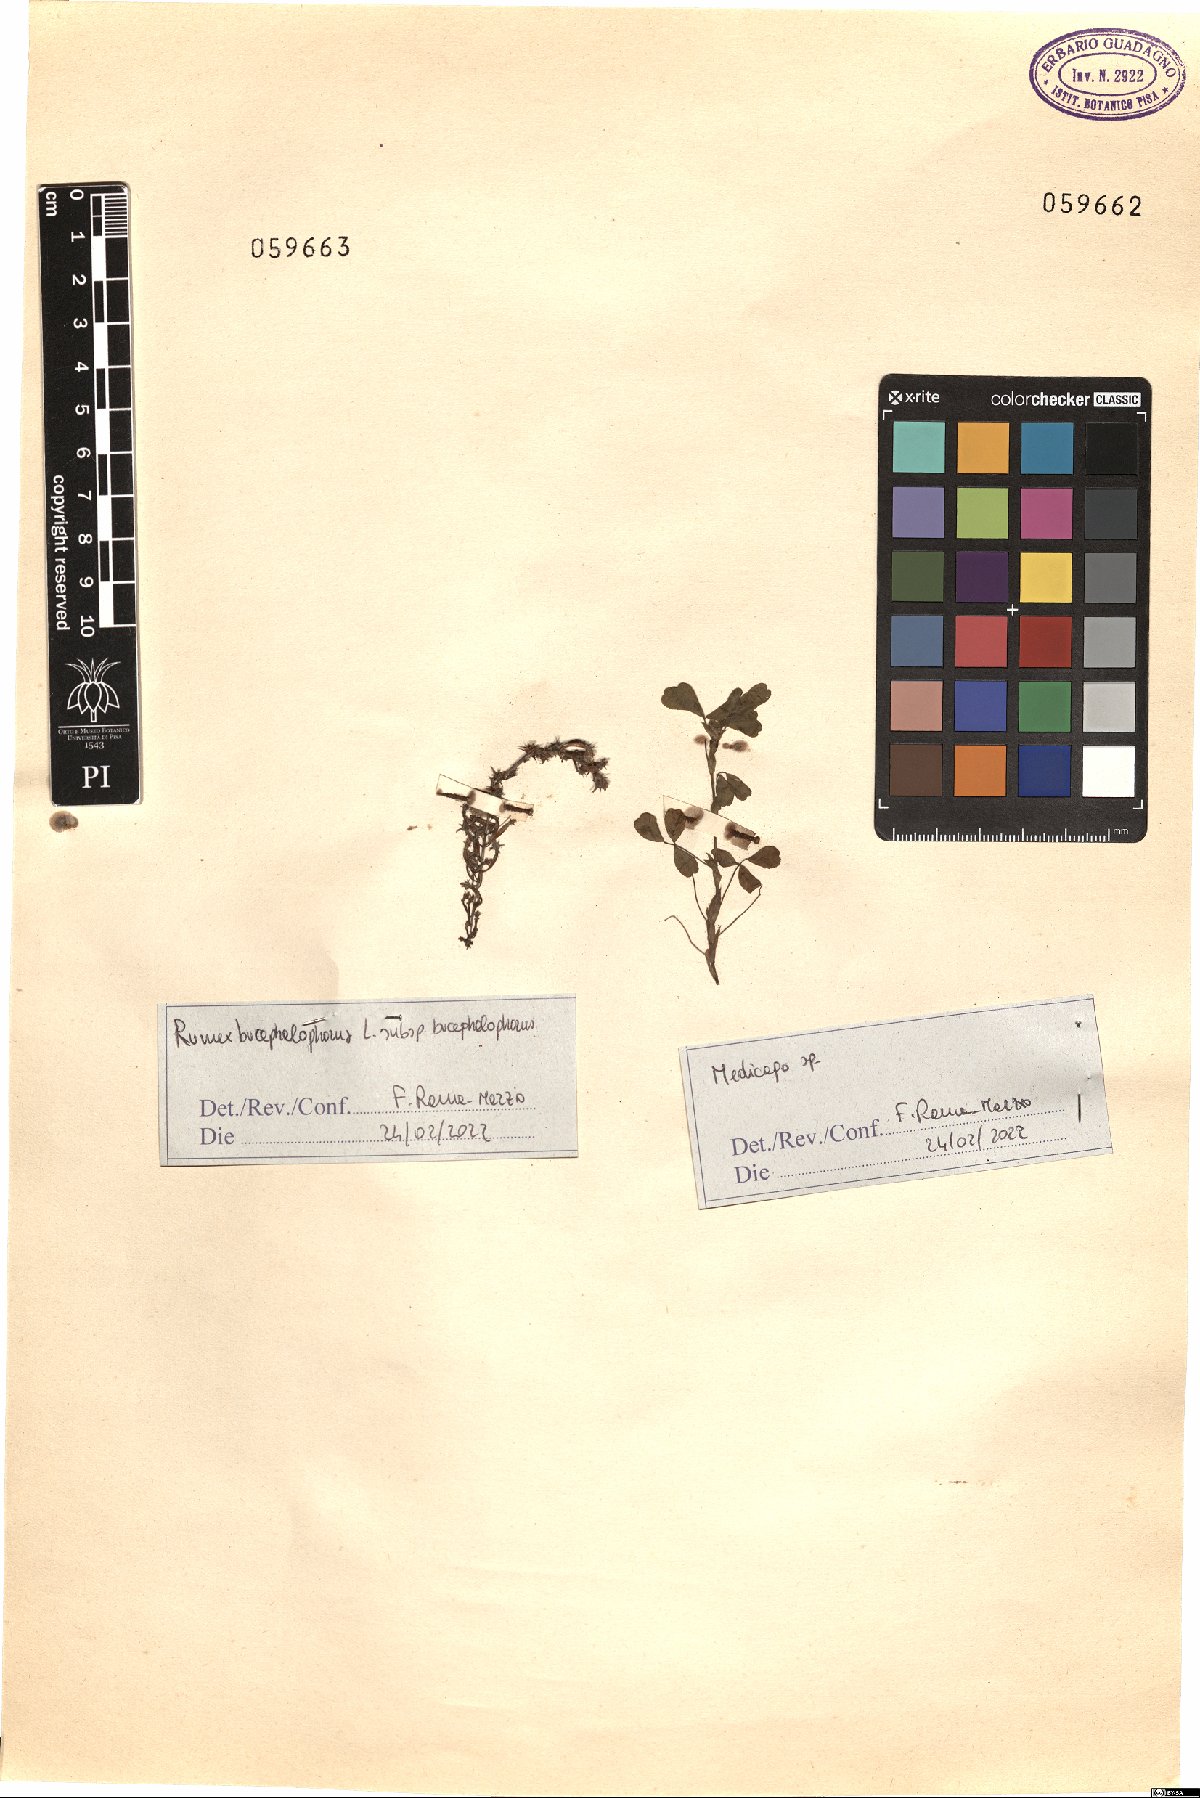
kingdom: Plantae
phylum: Tracheophyta
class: Magnoliopsida
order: Caryophyllales
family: Polygonaceae
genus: Rumex
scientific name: Rumex bucephalophorus
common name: Red dock
